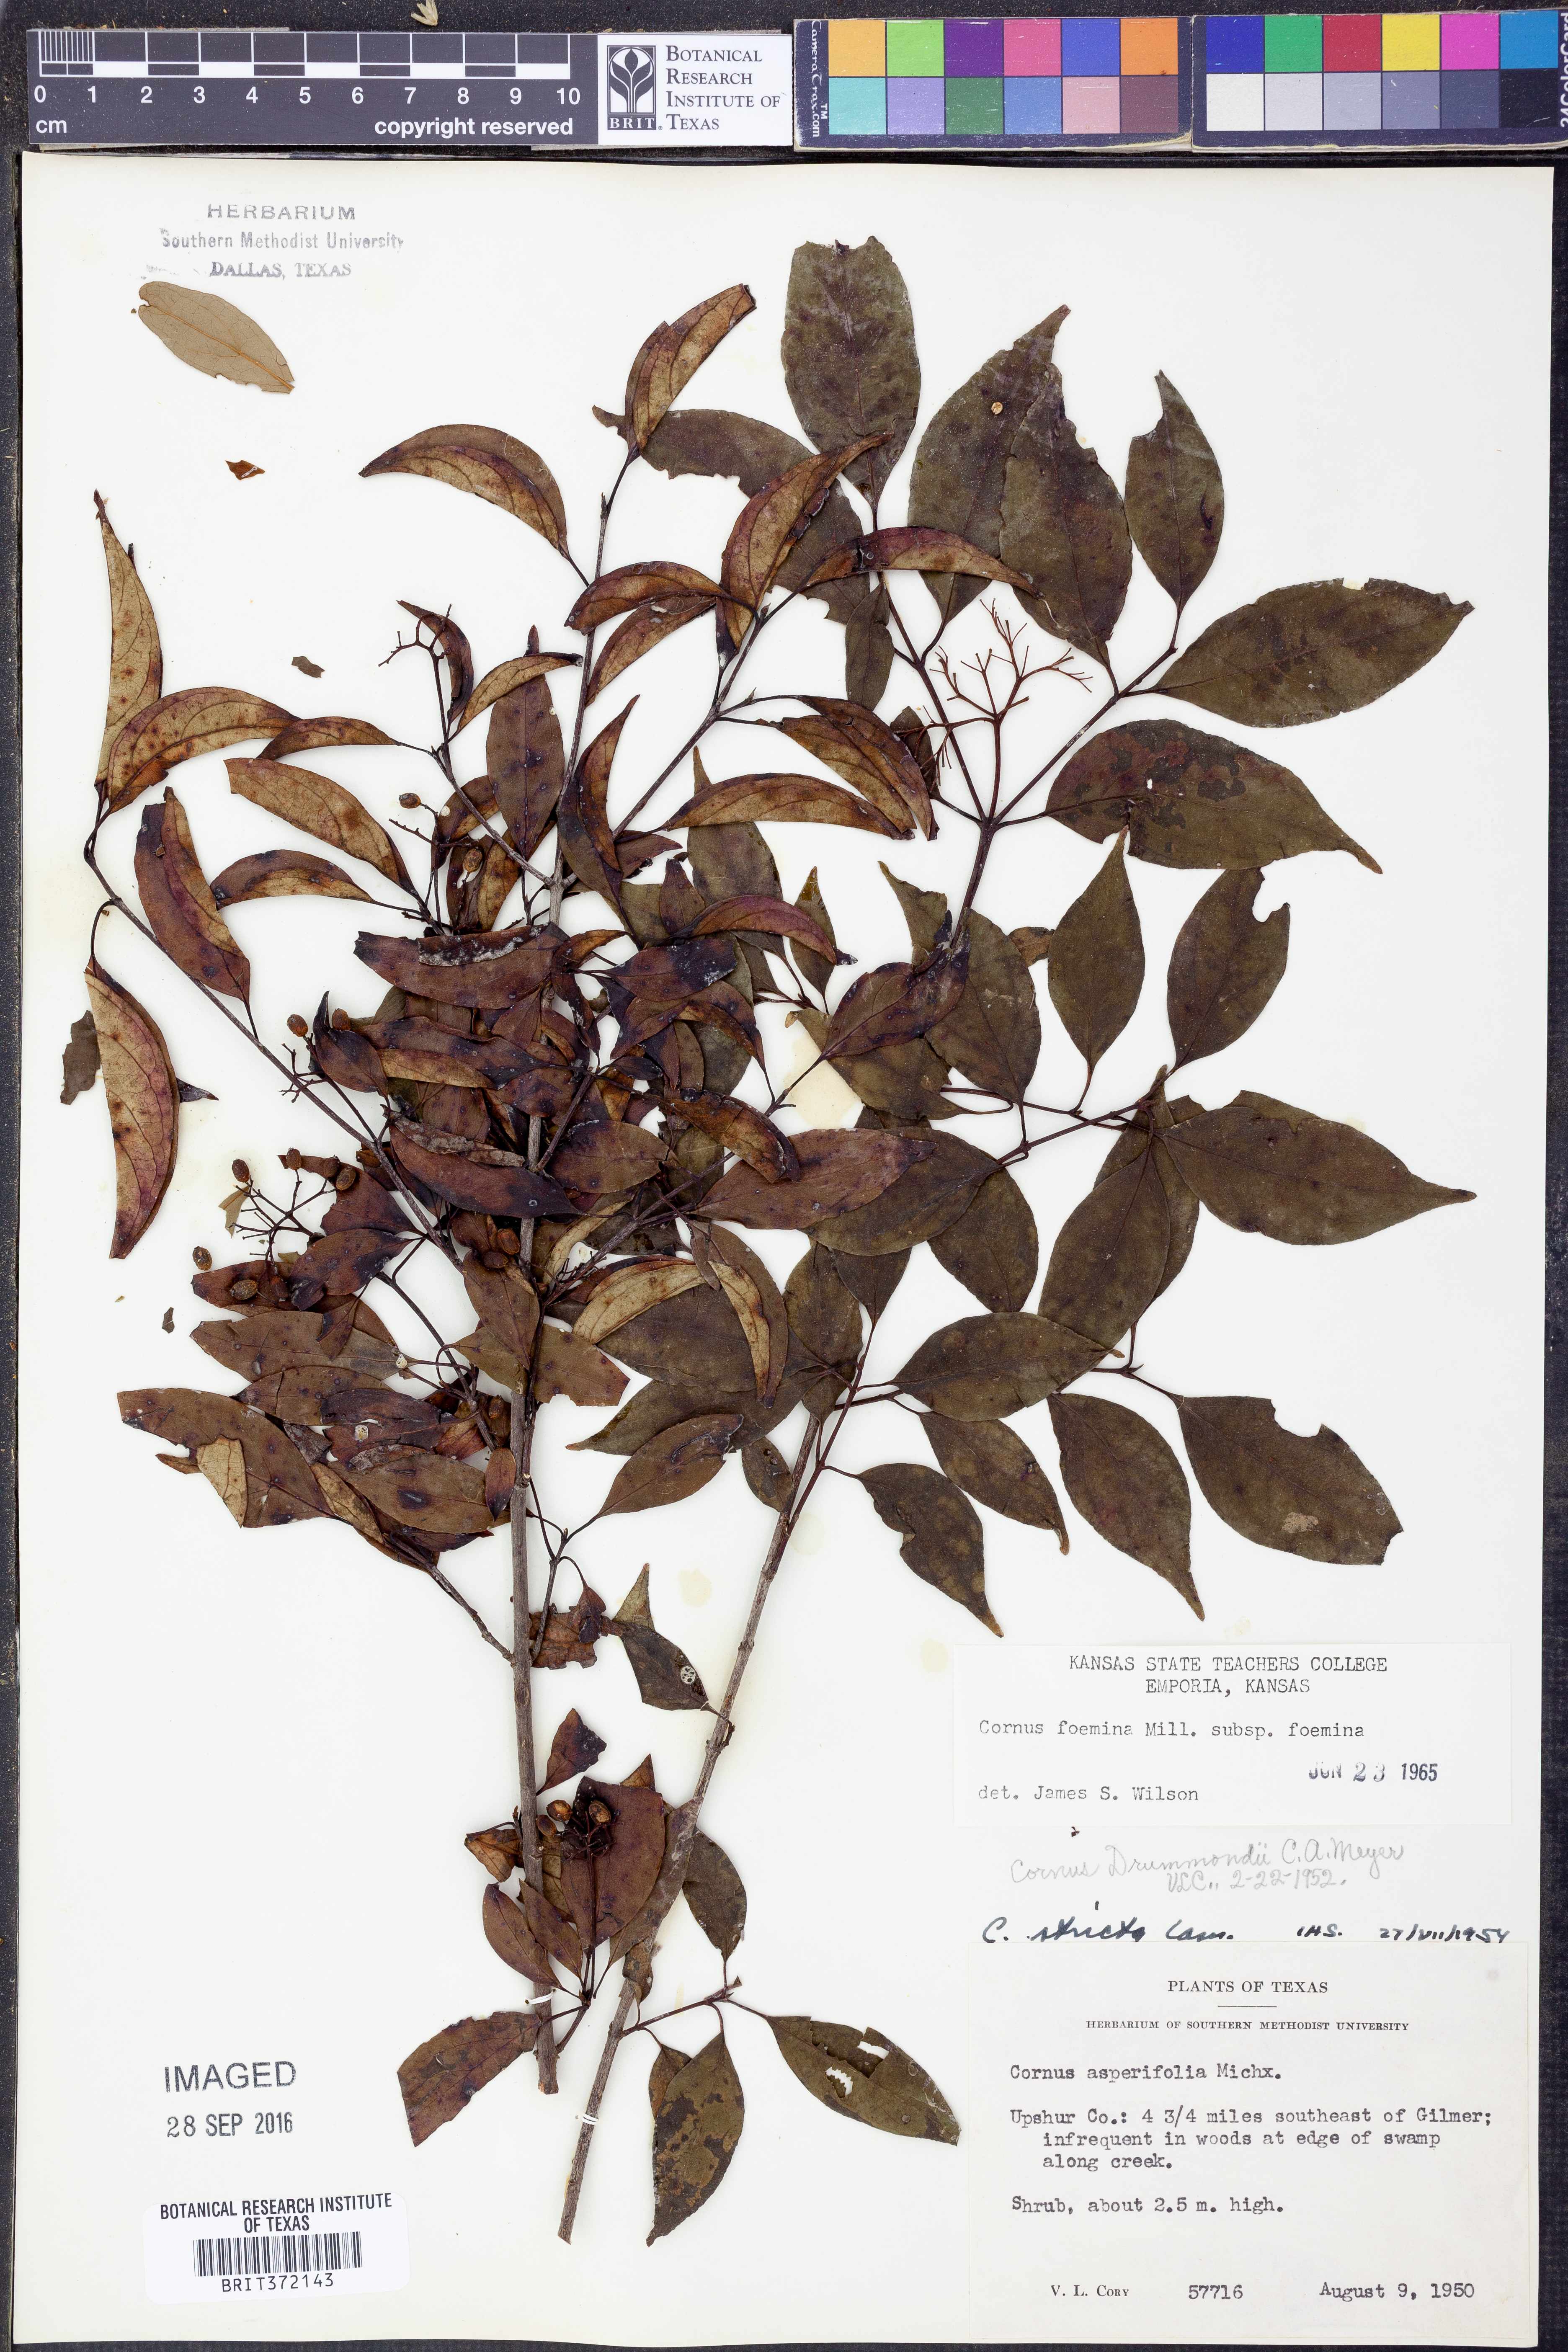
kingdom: Plantae
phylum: Tracheophyta
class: Magnoliopsida
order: Cornales
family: Cornaceae
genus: Cornus
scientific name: Cornus foemina
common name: Swamp dogwood
